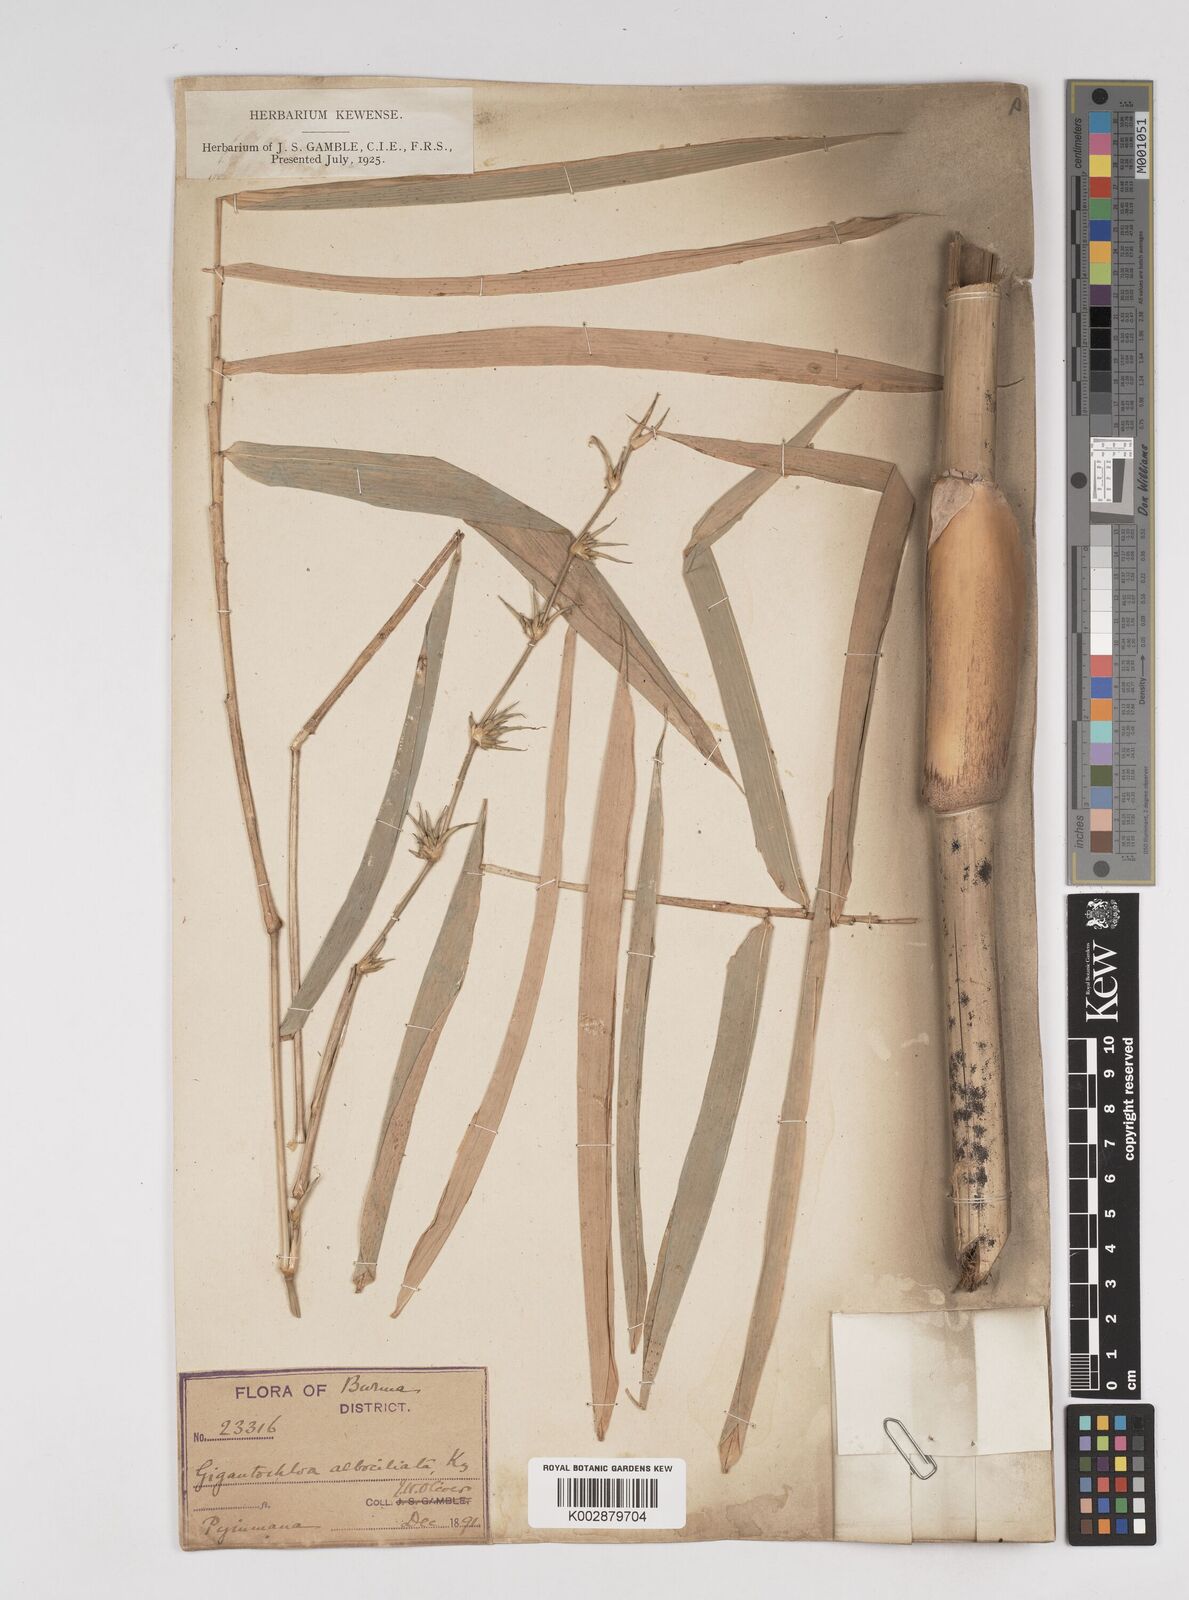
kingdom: Plantae
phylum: Tracheophyta
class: Liliopsida
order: Poales
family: Poaceae
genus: Gigantochloa
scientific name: Gigantochloa albociliata
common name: White-fringe gigantochloa
